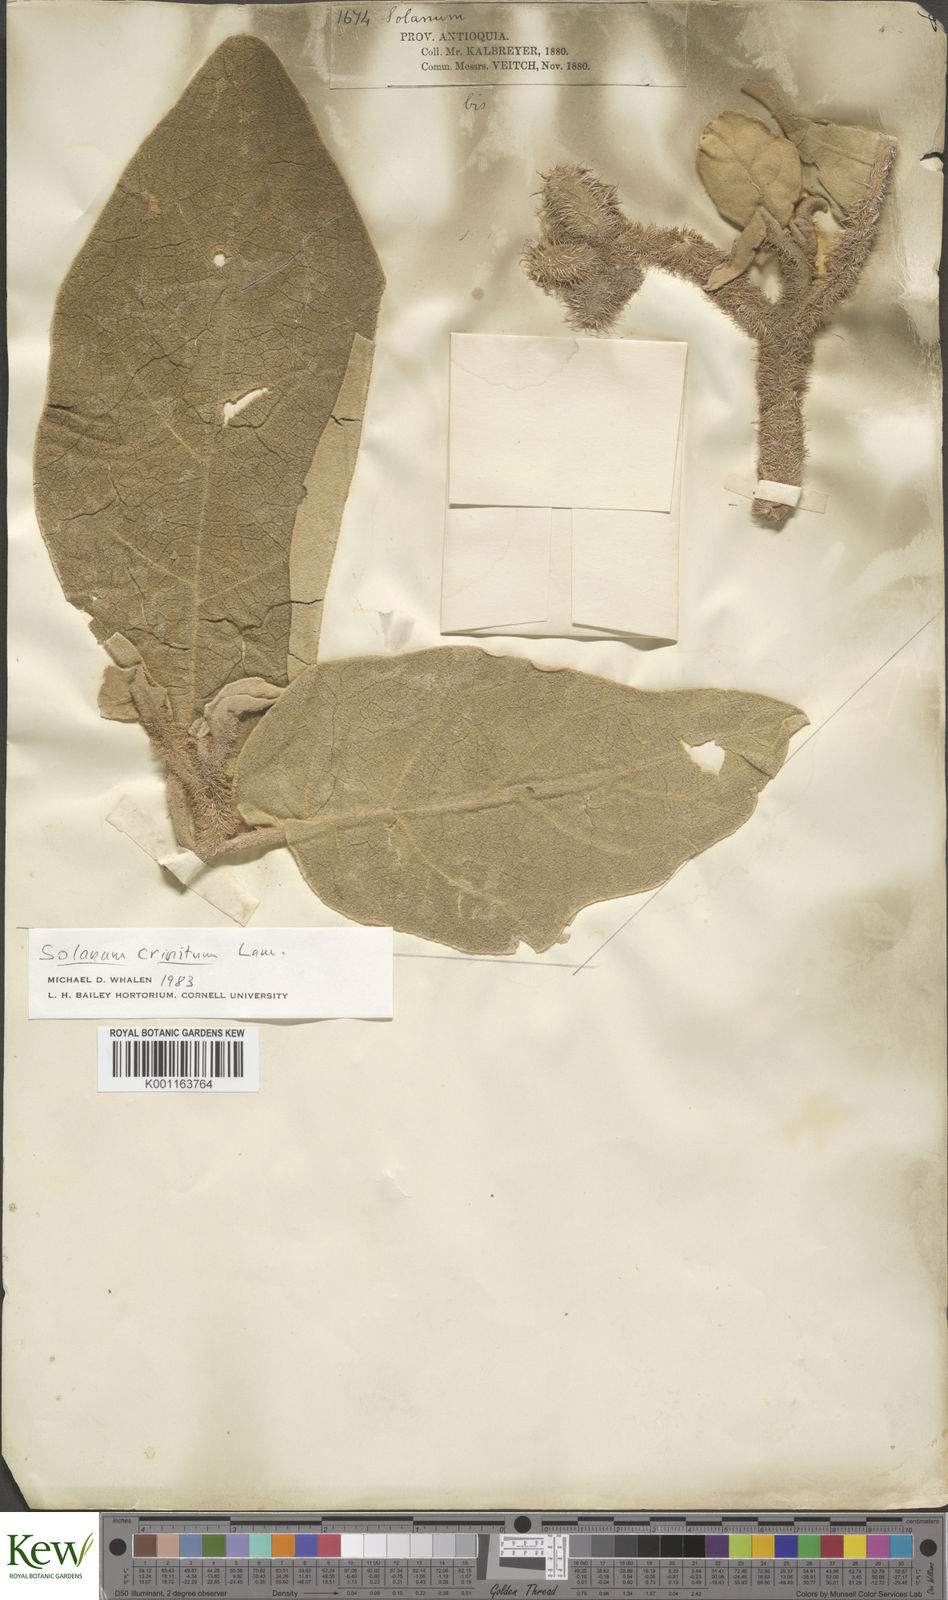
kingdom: Plantae
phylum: Tracheophyta
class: Magnoliopsida
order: Solanales
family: Solanaceae
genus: Solanum
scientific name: Solanum crinitum
